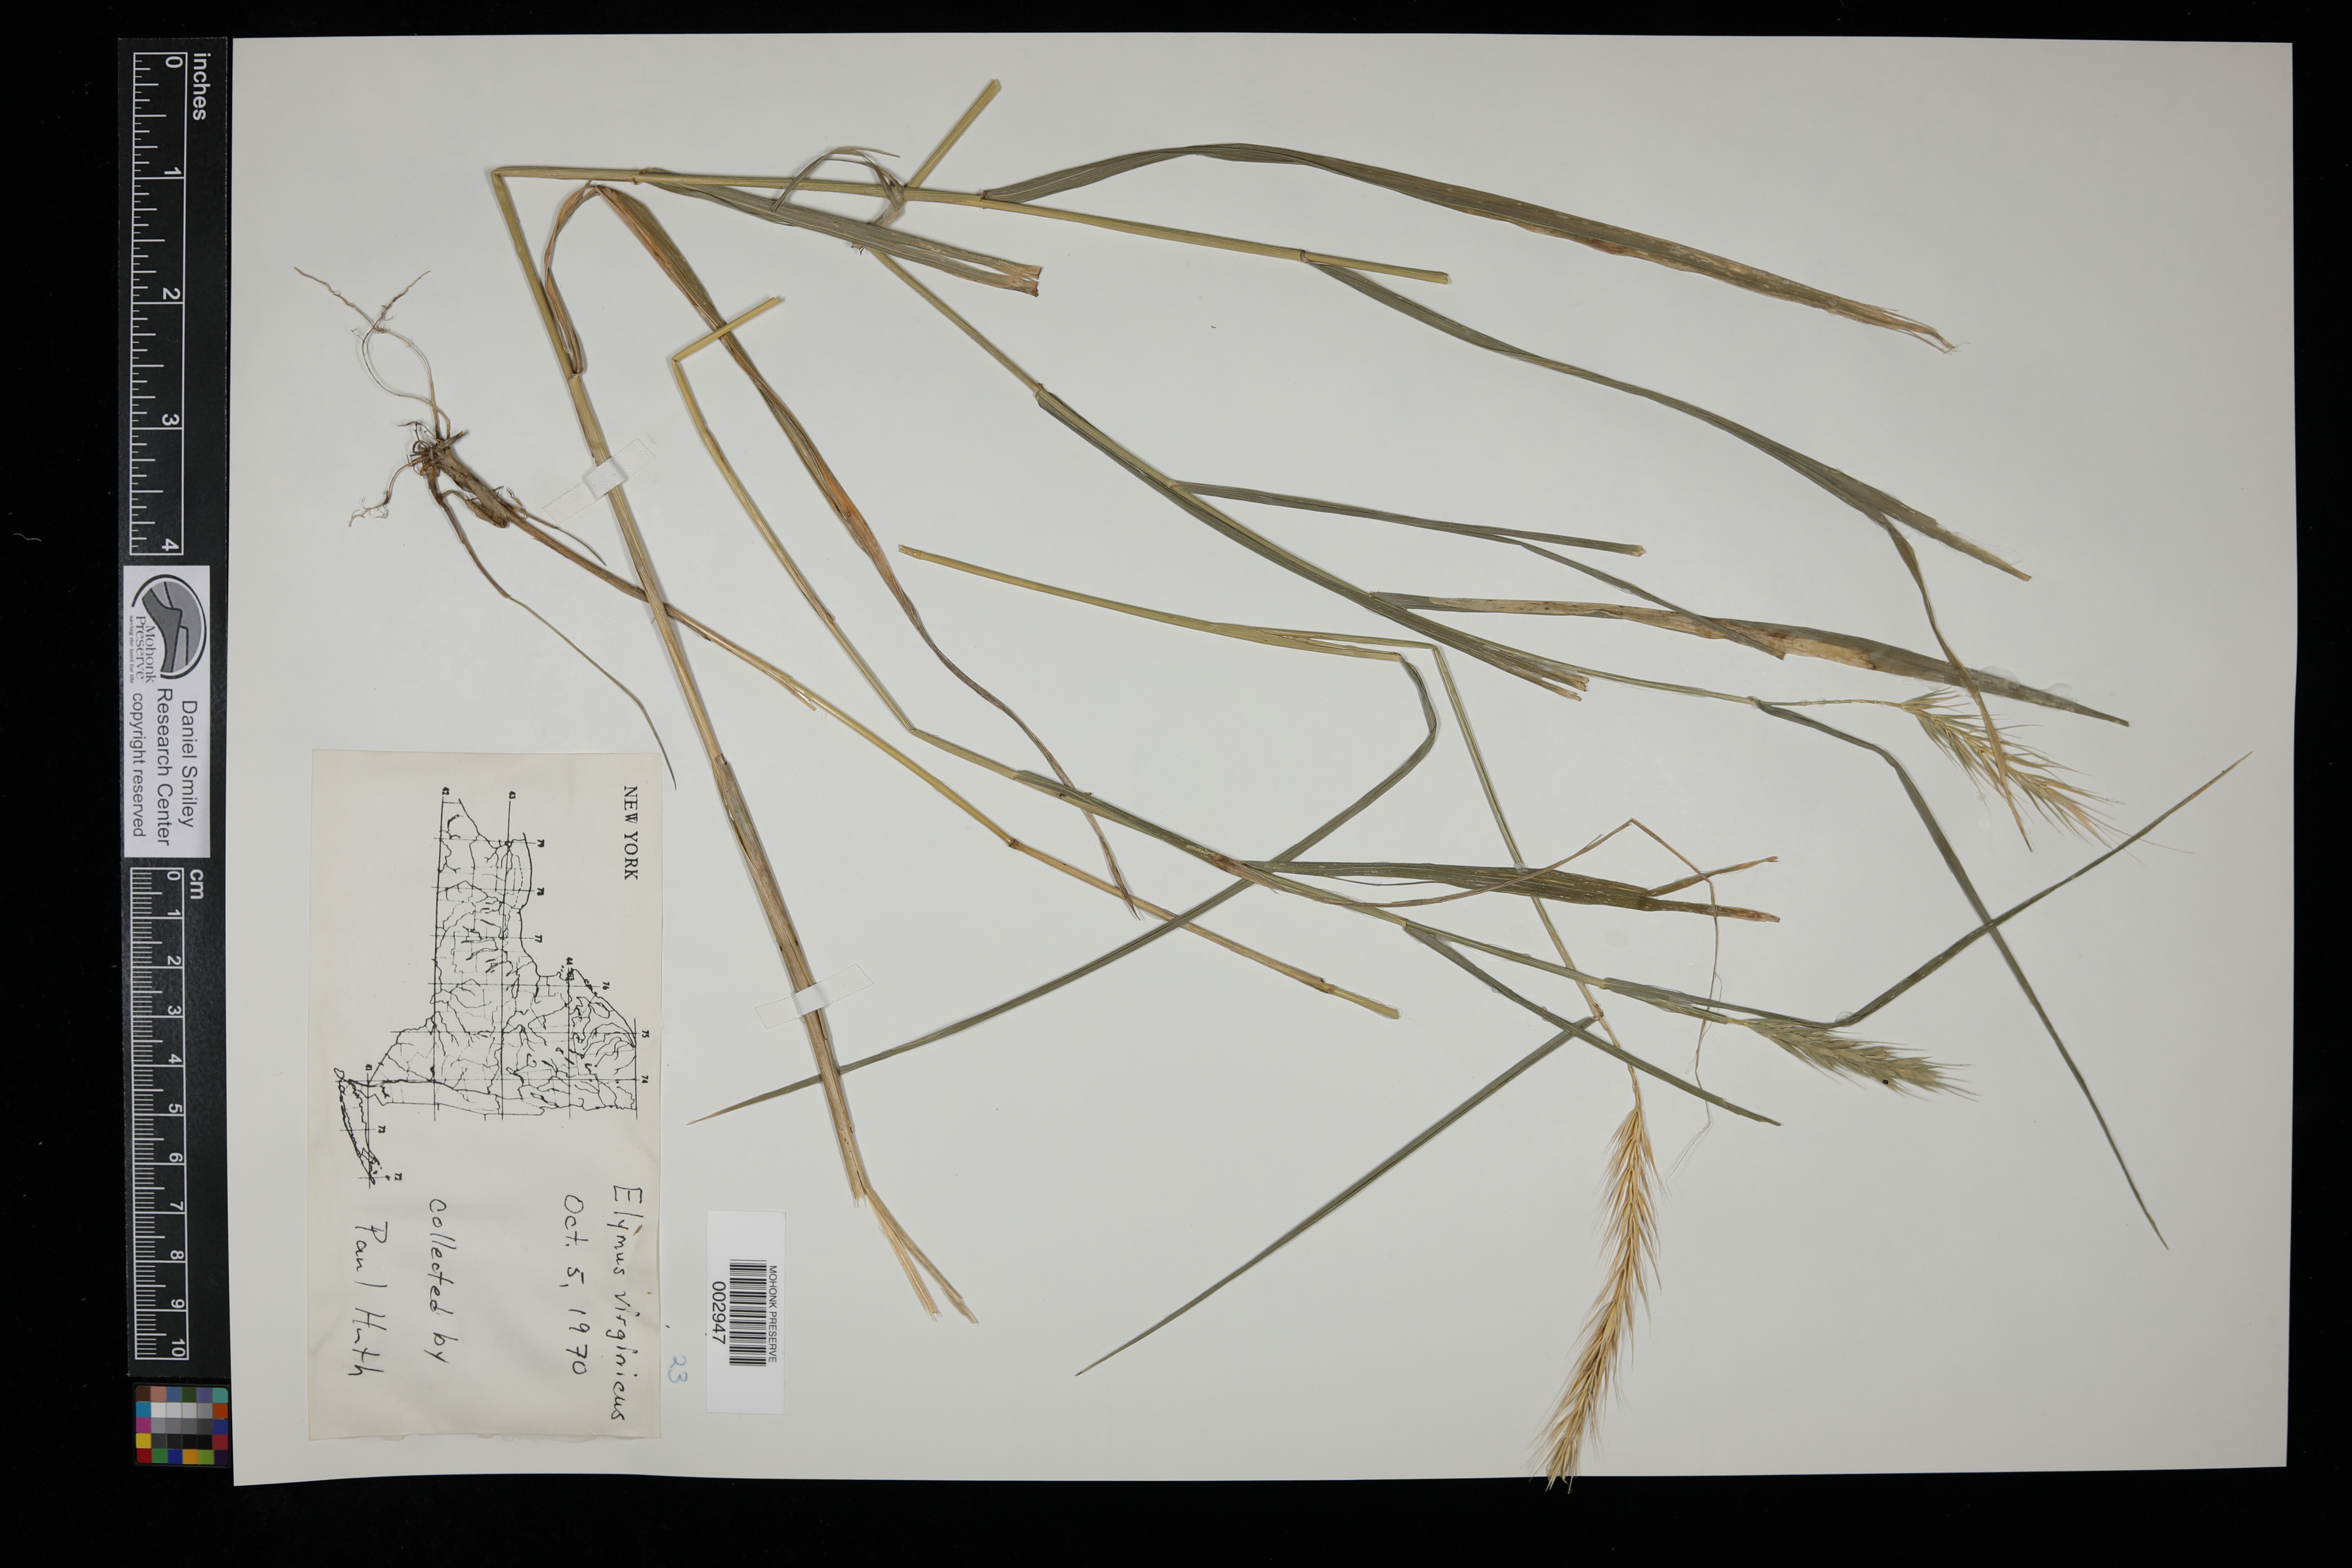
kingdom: Plantae
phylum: Tracheophyta
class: Liliopsida
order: Poales
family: Poaceae
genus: Elymus
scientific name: Elymus virginicus
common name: Common eastern wildrye
